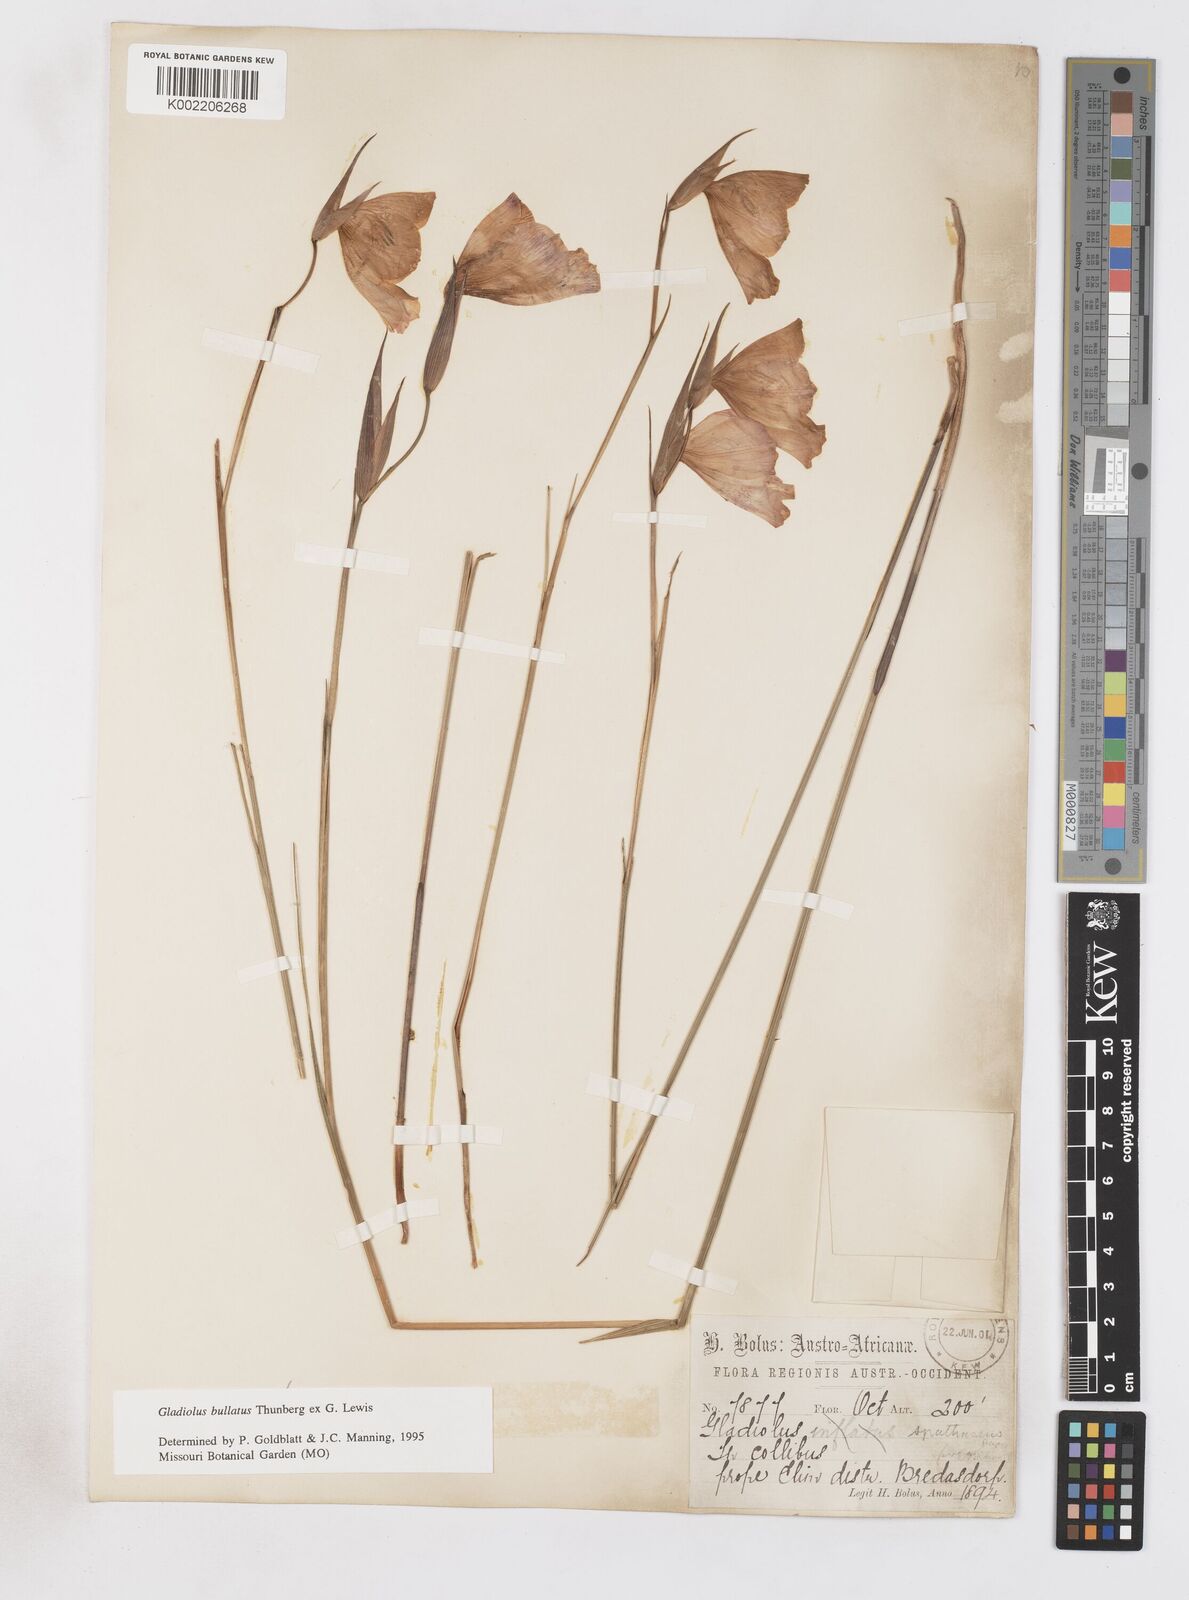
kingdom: Plantae
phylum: Tracheophyta
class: Liliopsida
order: Asparagales
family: Iridaceae
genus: Gladiolus
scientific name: Gladiolus bullatus
